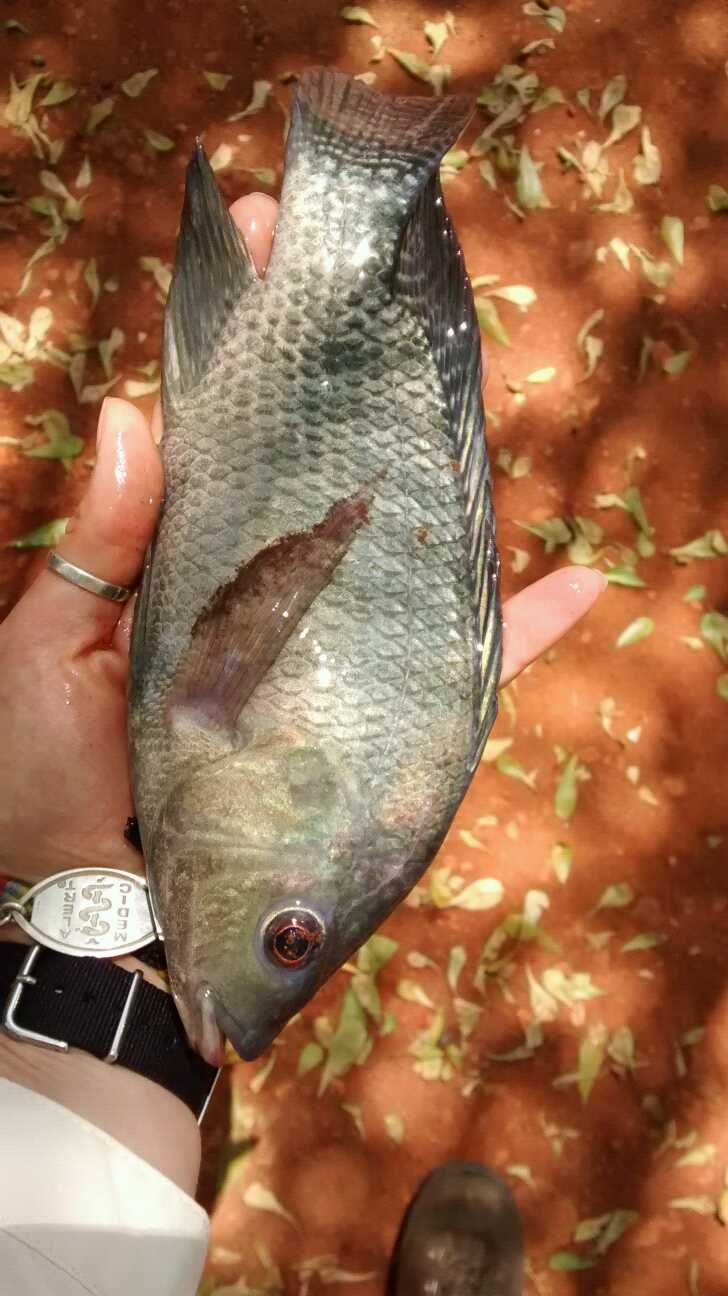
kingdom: Animalia
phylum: Chordata
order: Perciformes
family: Cichlidae
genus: Oreochromis
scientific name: Oreochromis niloticus
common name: Nile tilapia
